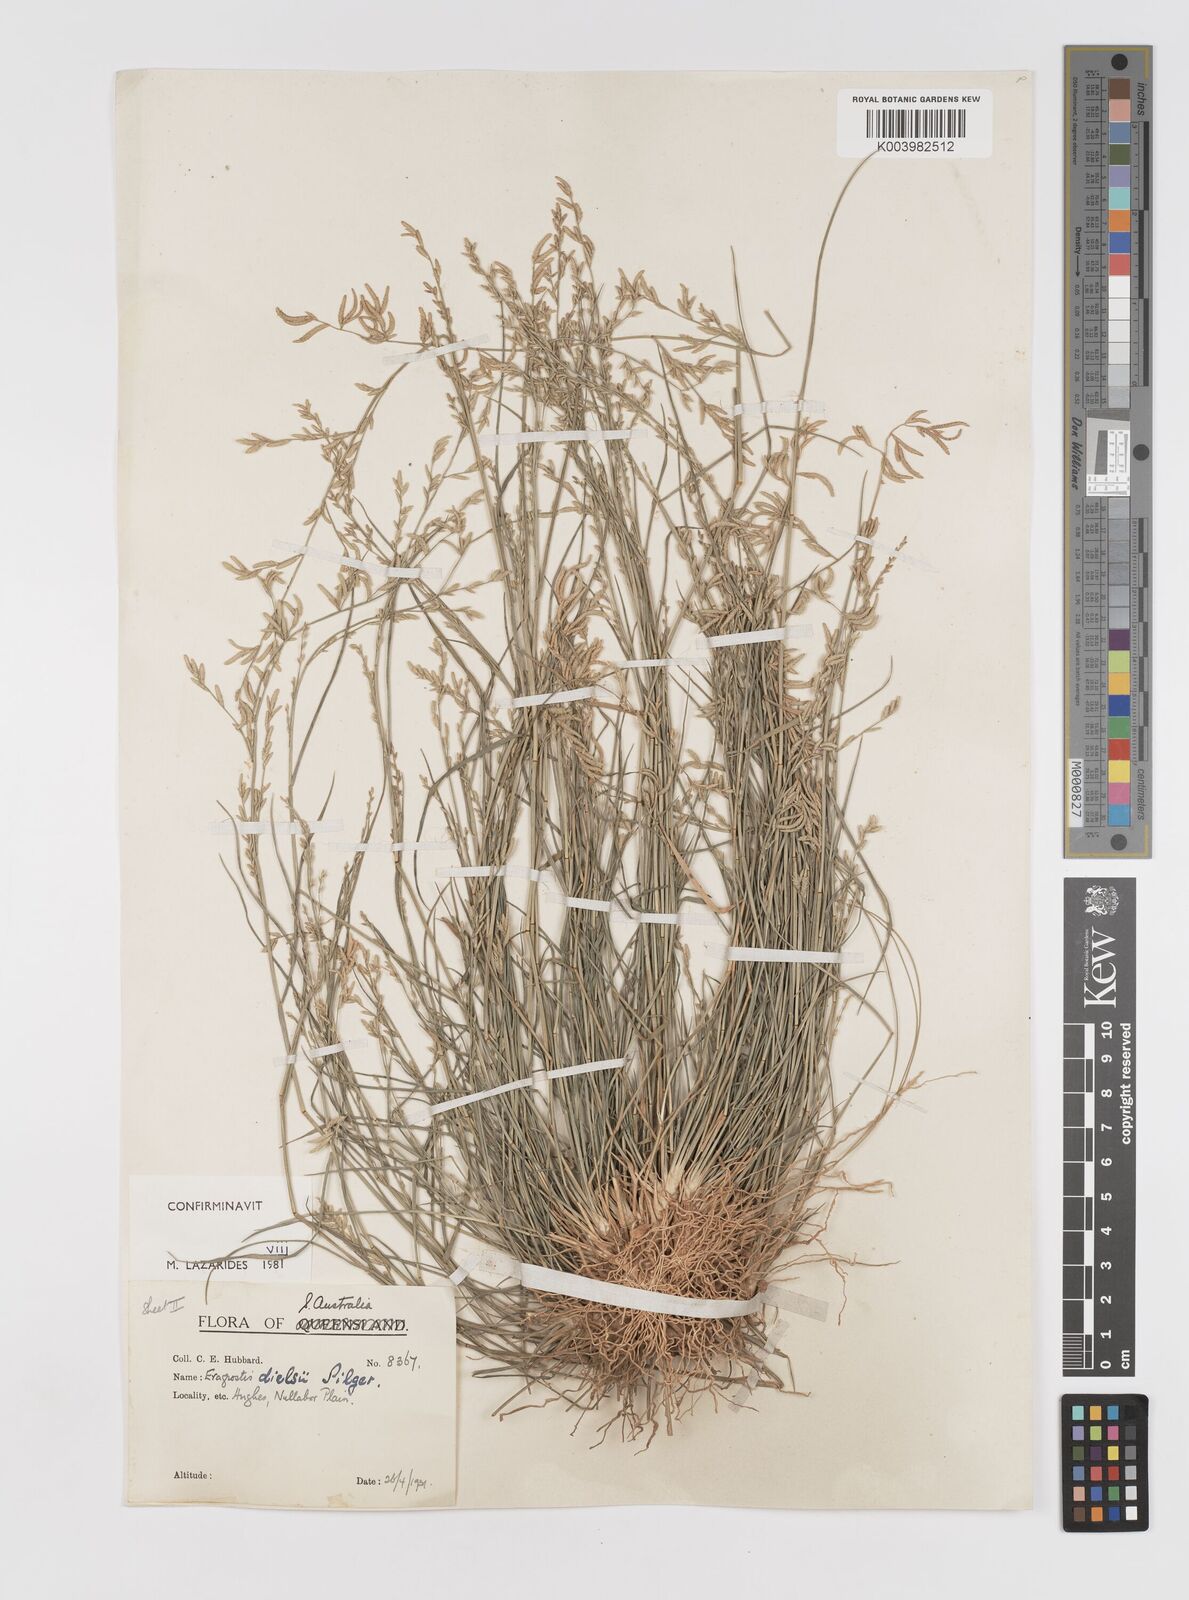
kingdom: Plantae
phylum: Tracheophyta
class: Liliopsida
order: Poales
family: Poaceae
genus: Eragrostis
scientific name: Eragrostis dielsii
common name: Lovegrass
